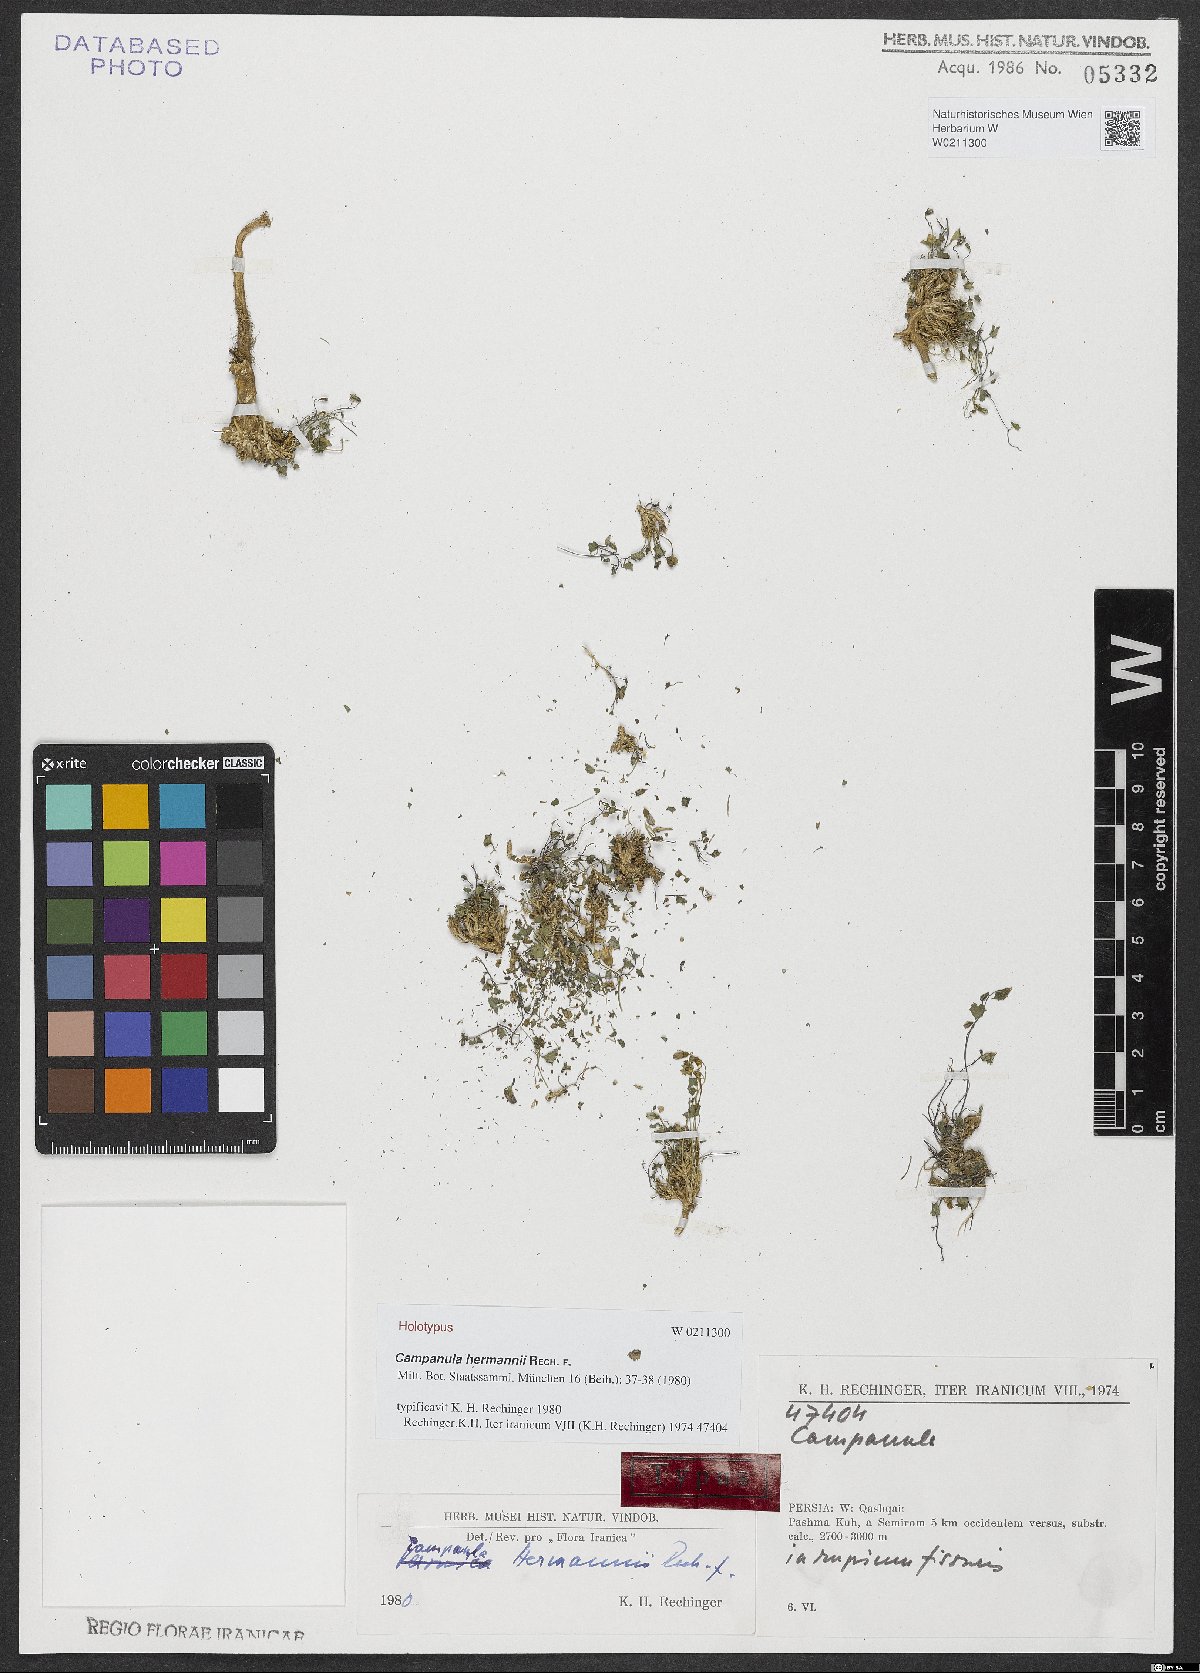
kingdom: Plantae
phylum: Tracheophyta
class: Magnoliopsida
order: Asterales
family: Campanulaceae
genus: Campanula
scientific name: Campanula hermannii
